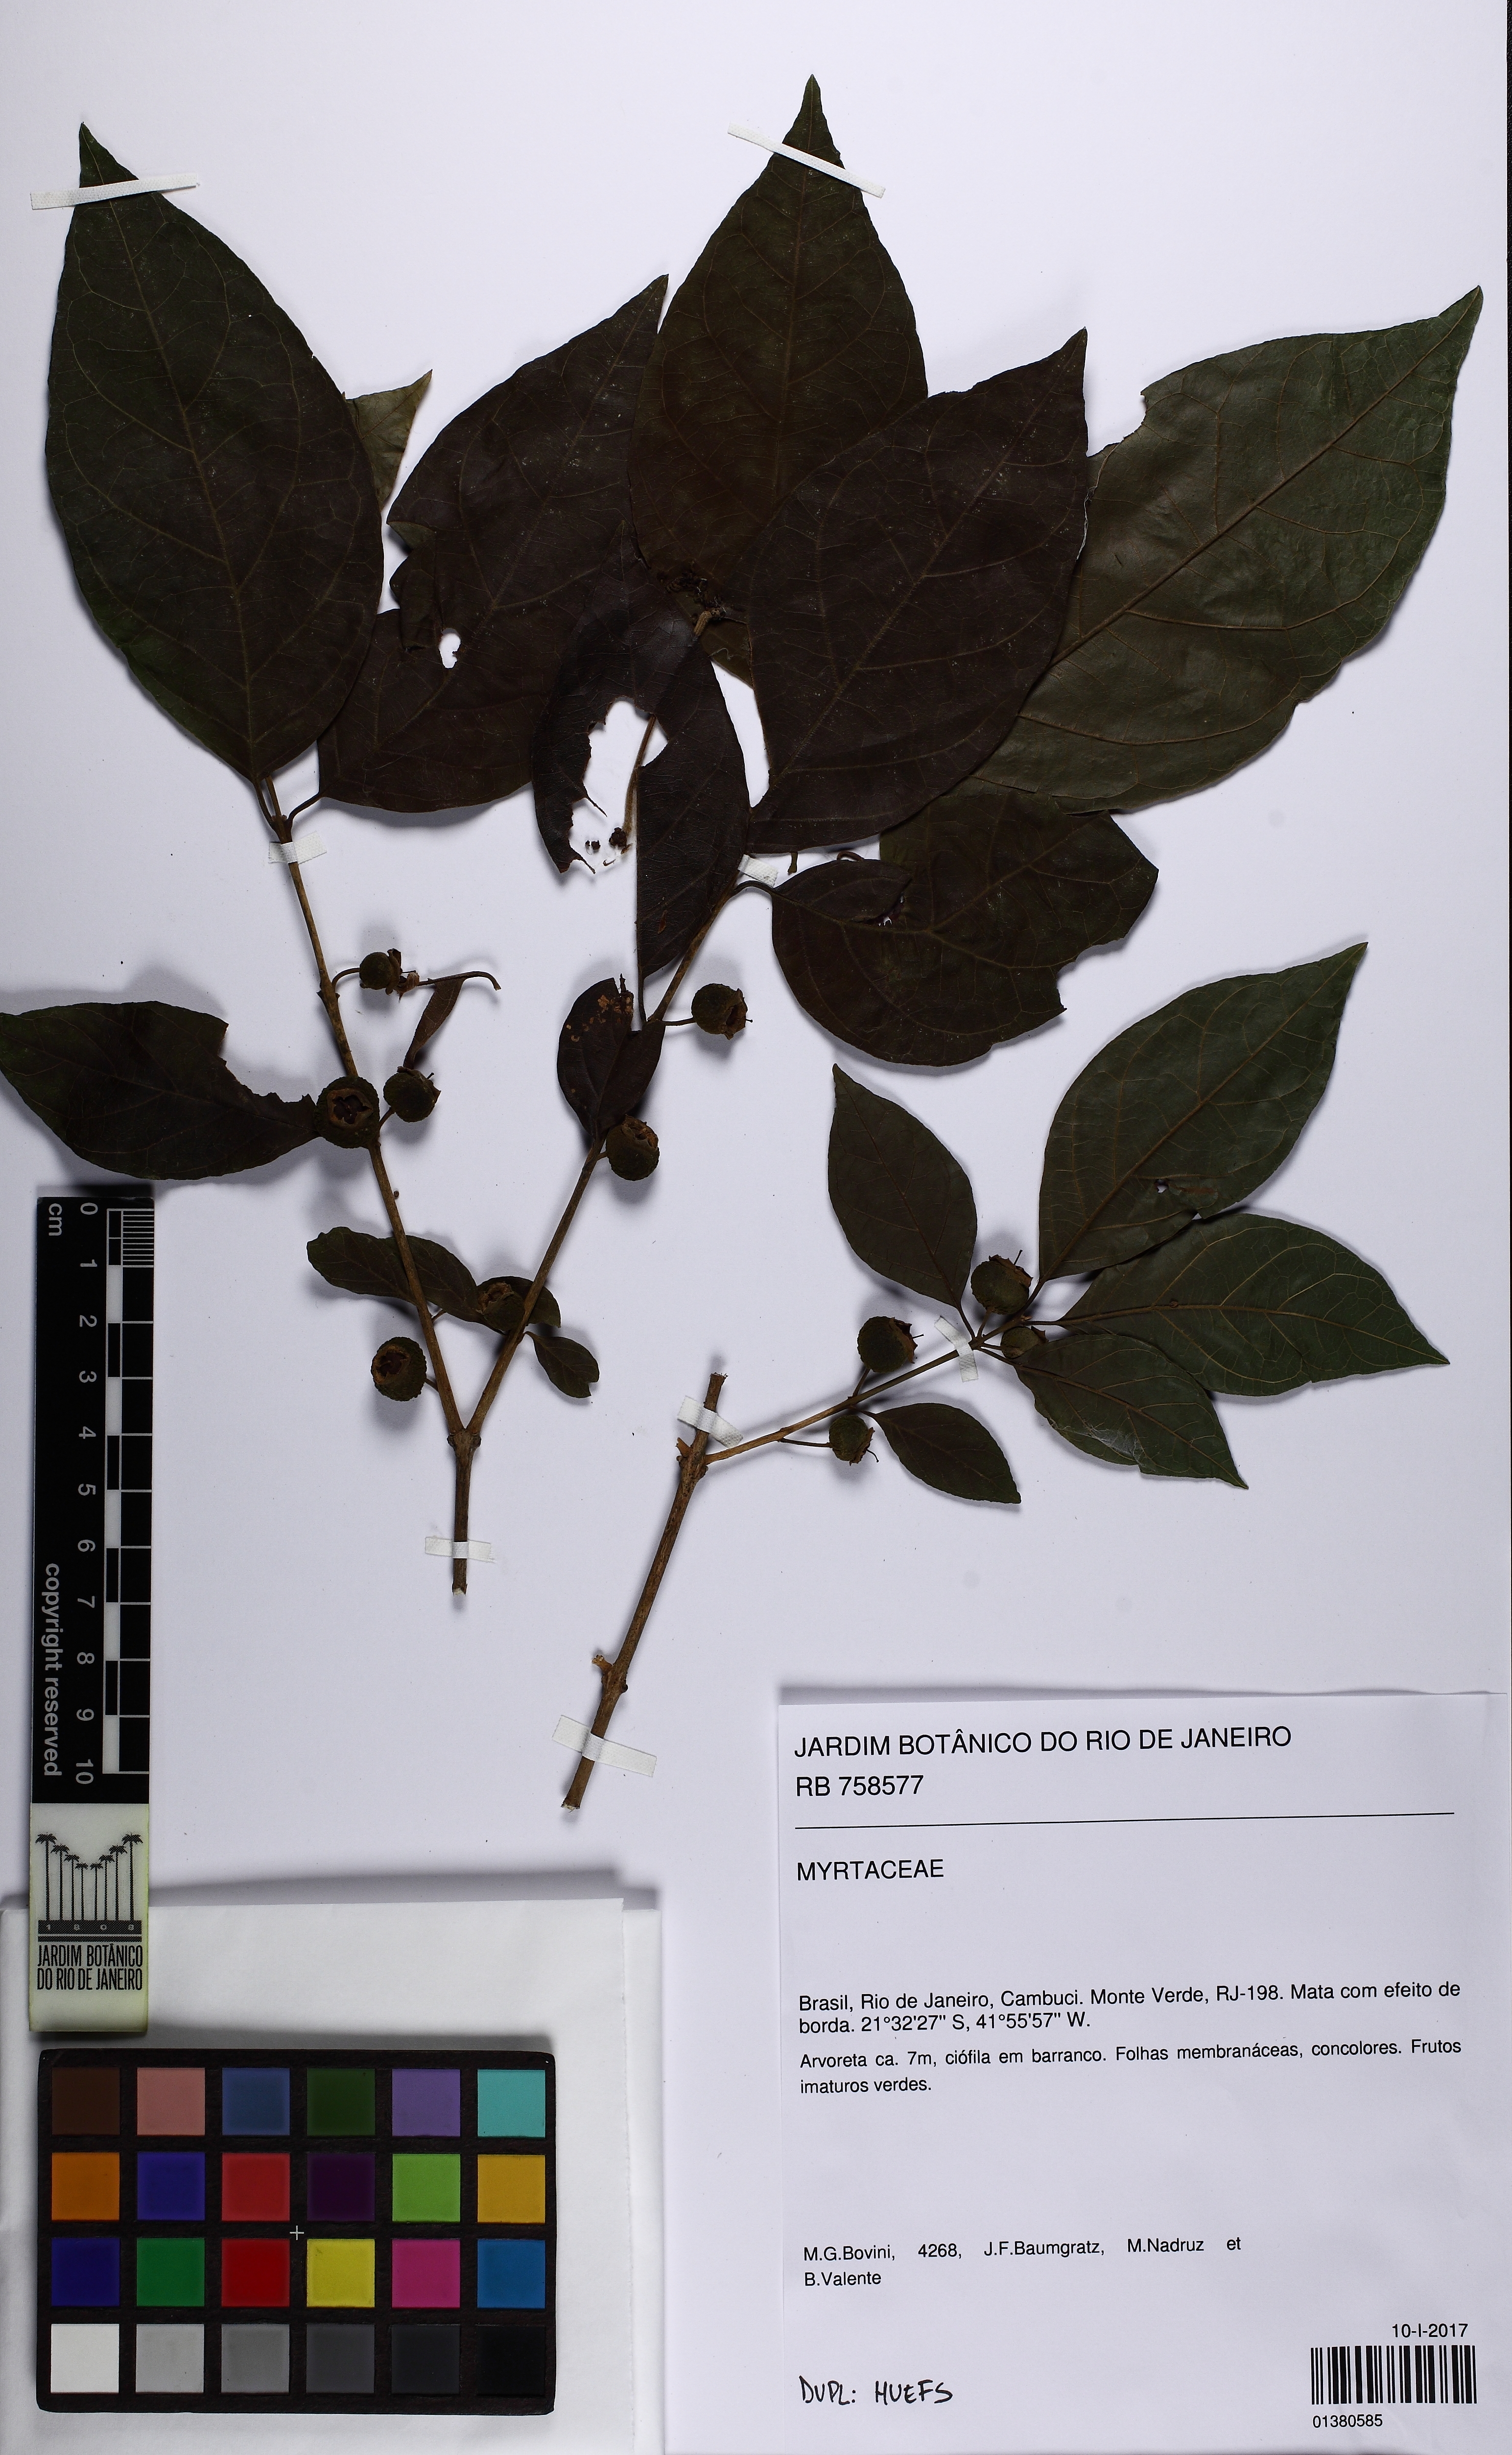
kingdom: Plantae
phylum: Tracheophyta
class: Magnoliopsida
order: Myrtales
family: Myrtaceae
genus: Campomanesia
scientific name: Campomanesia guaviroba
